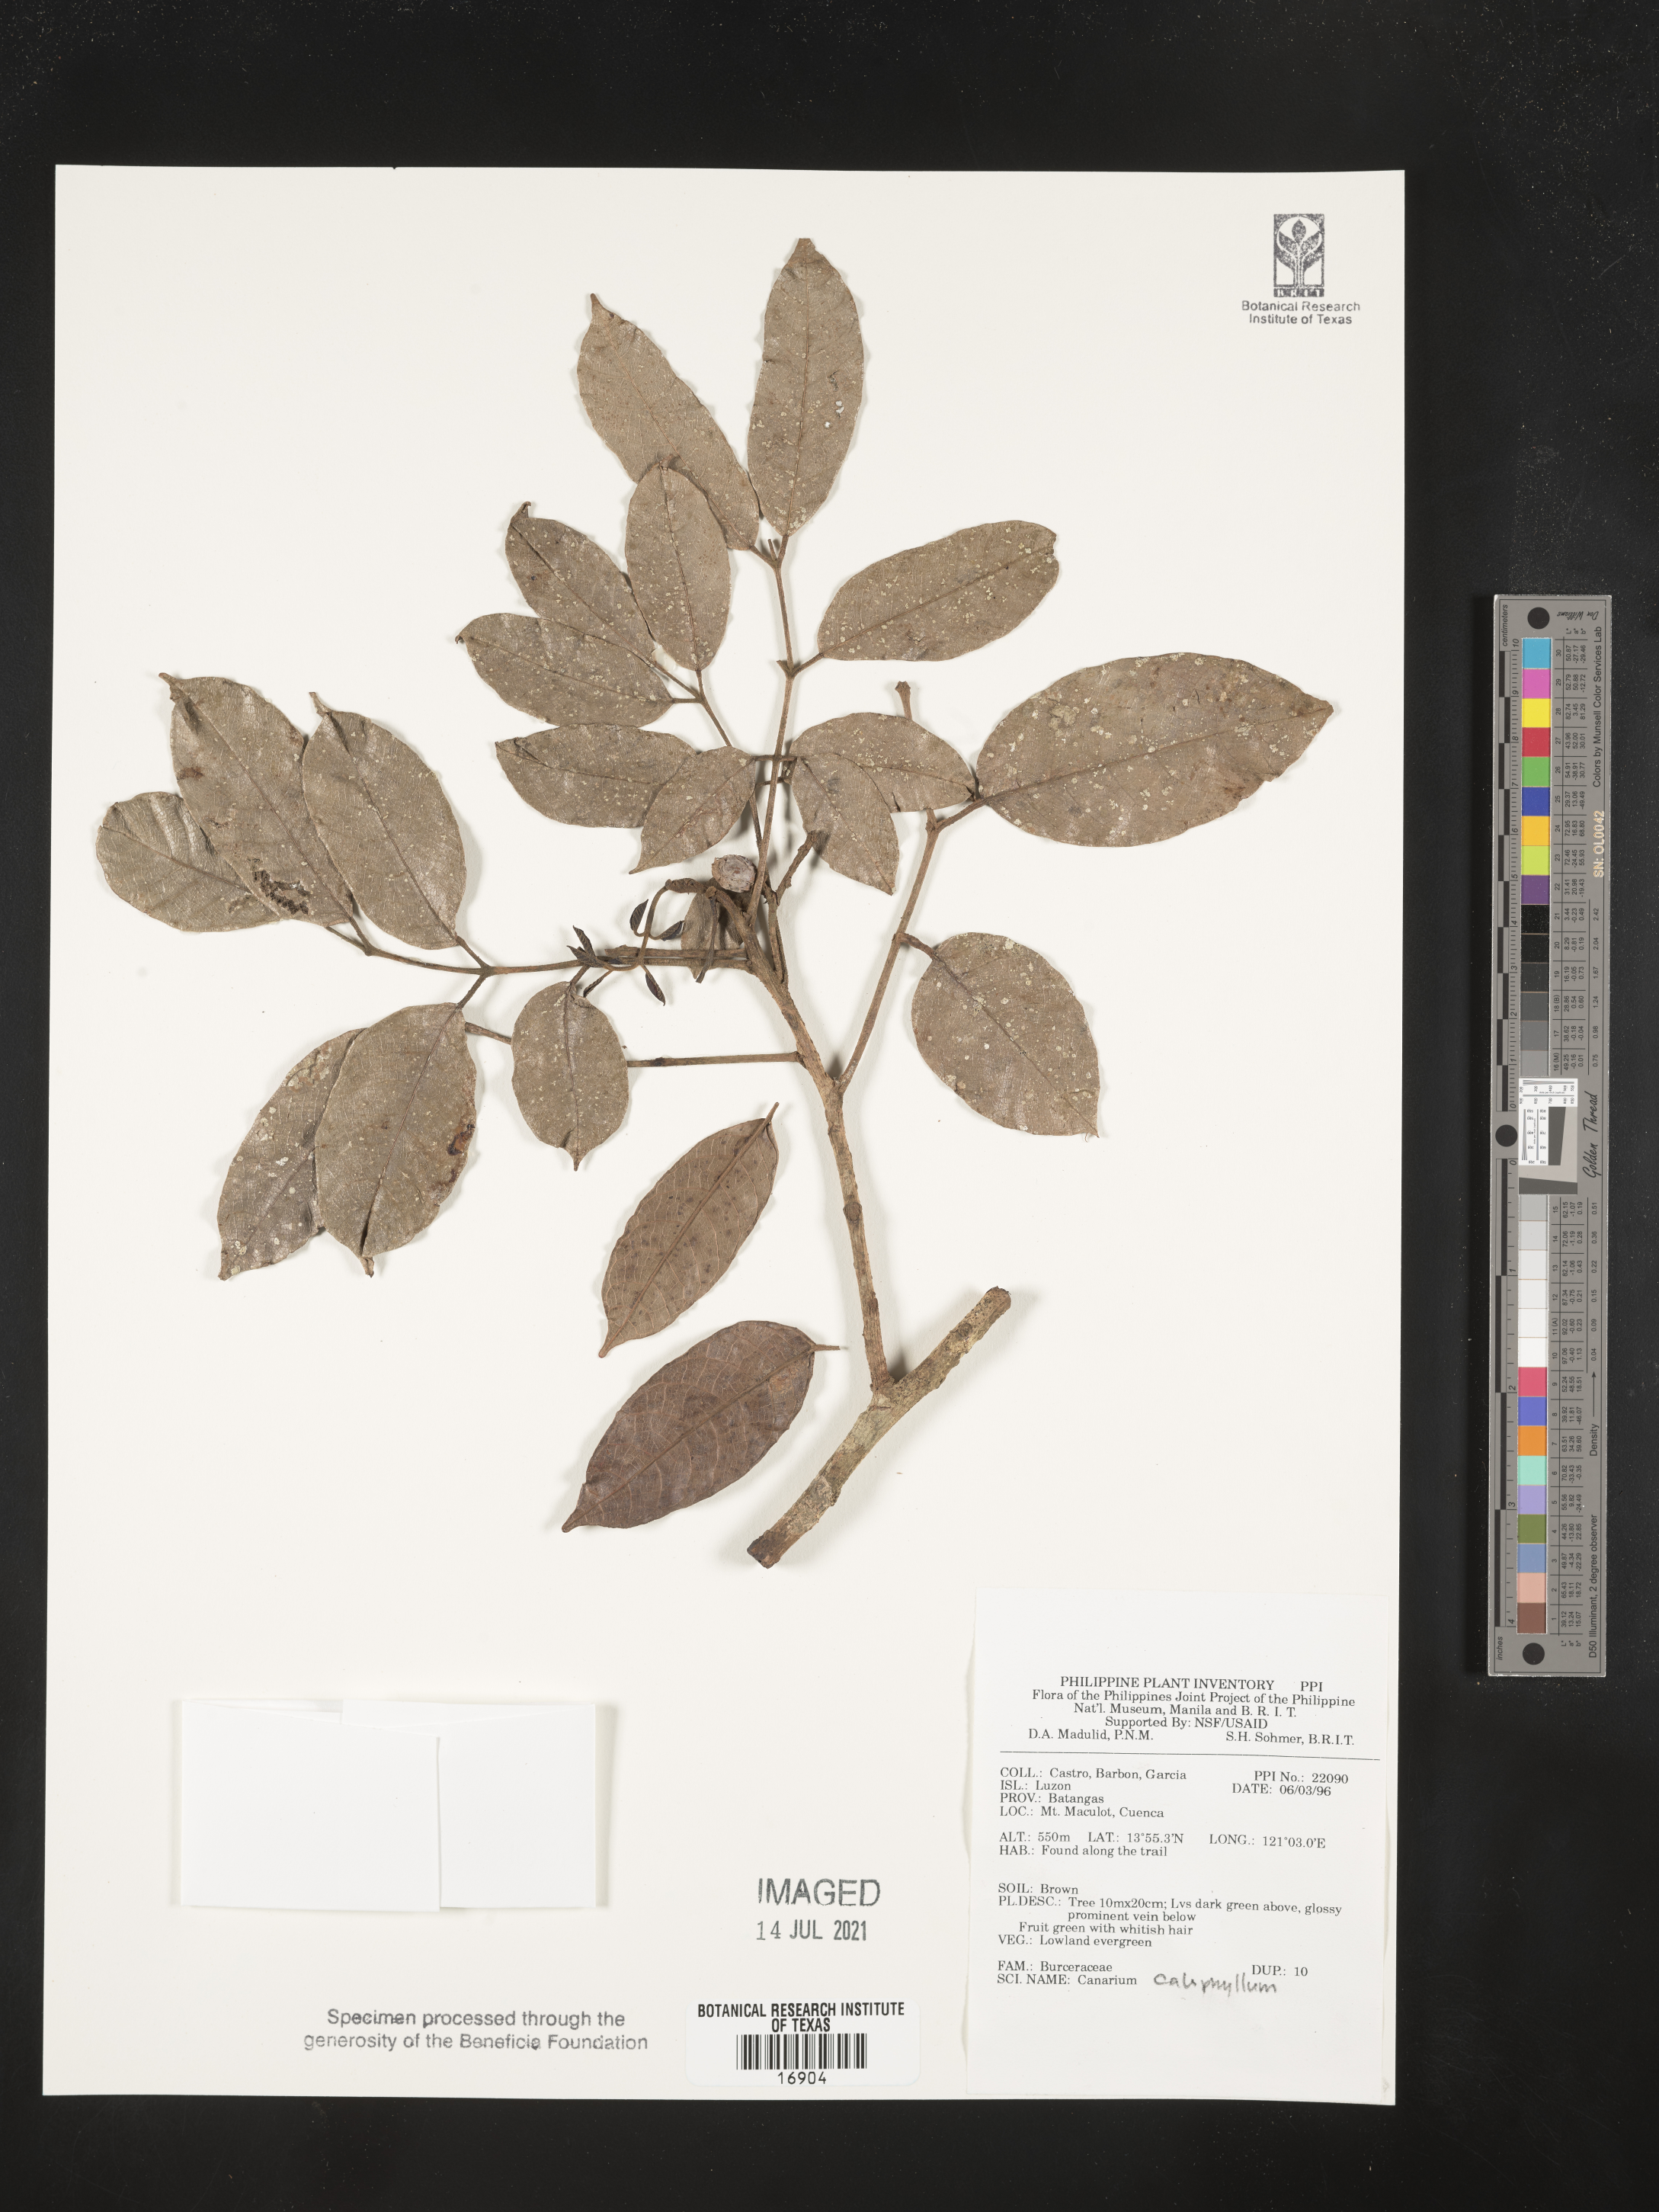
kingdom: Plantae
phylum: Tracheophyta
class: Magnoliopsida
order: Sapindales
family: Burseraceae
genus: Canarium
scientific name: Canarium asperum
